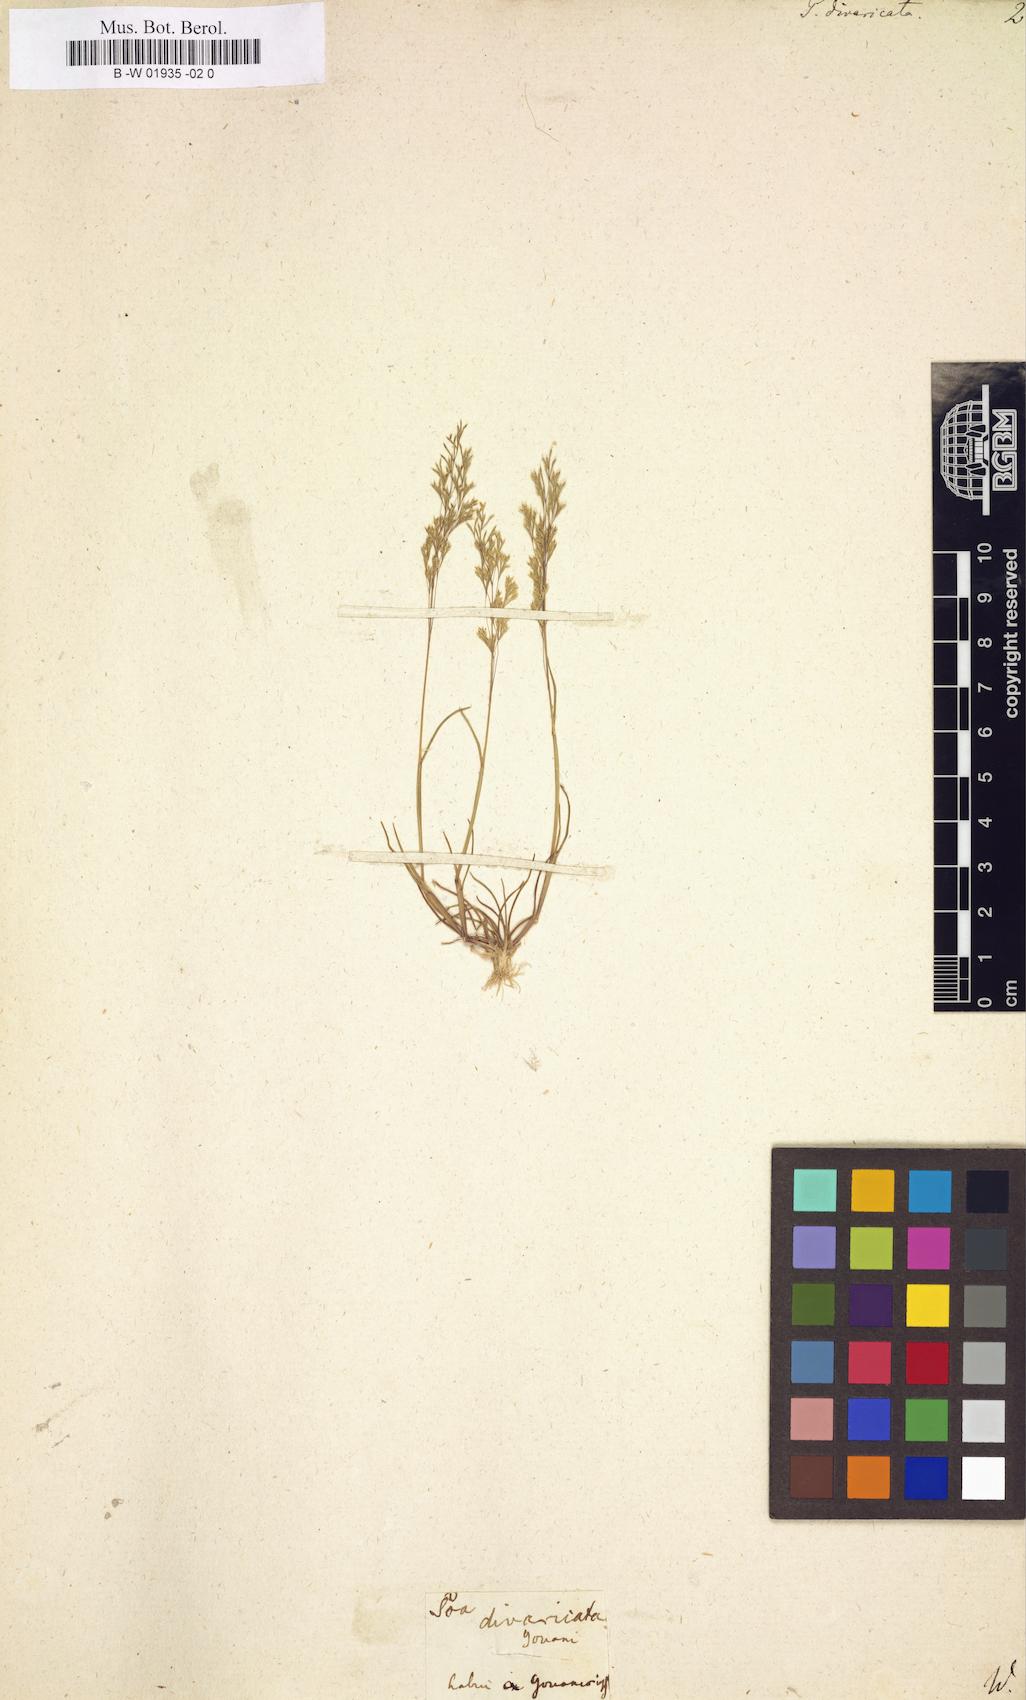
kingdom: Plantae
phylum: Tracheophyta
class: Liliopsida
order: Poales
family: Poaceae
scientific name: Poaceae
